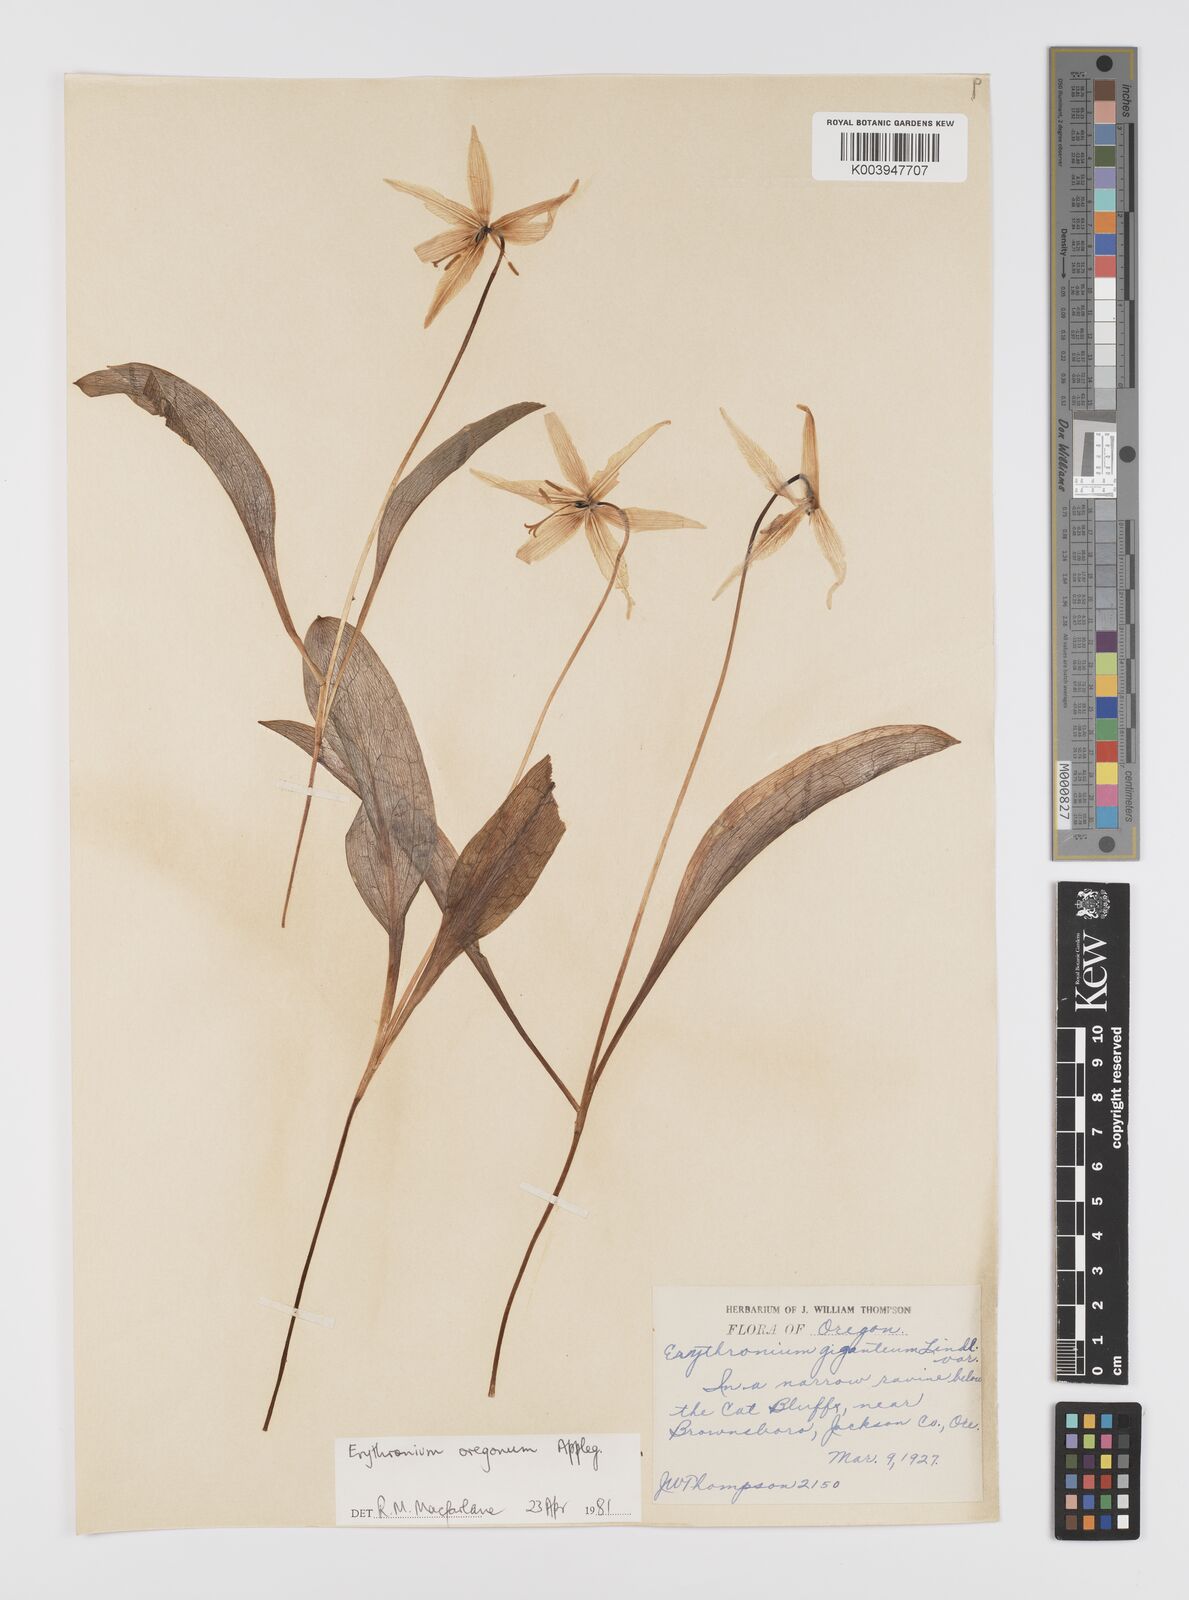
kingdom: Plantae
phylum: Tracheophyta
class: Liliopsida
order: Liliales
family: Liliaceae
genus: Erythronium
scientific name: Erythronium oregonum
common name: Giant adder's-tongue
